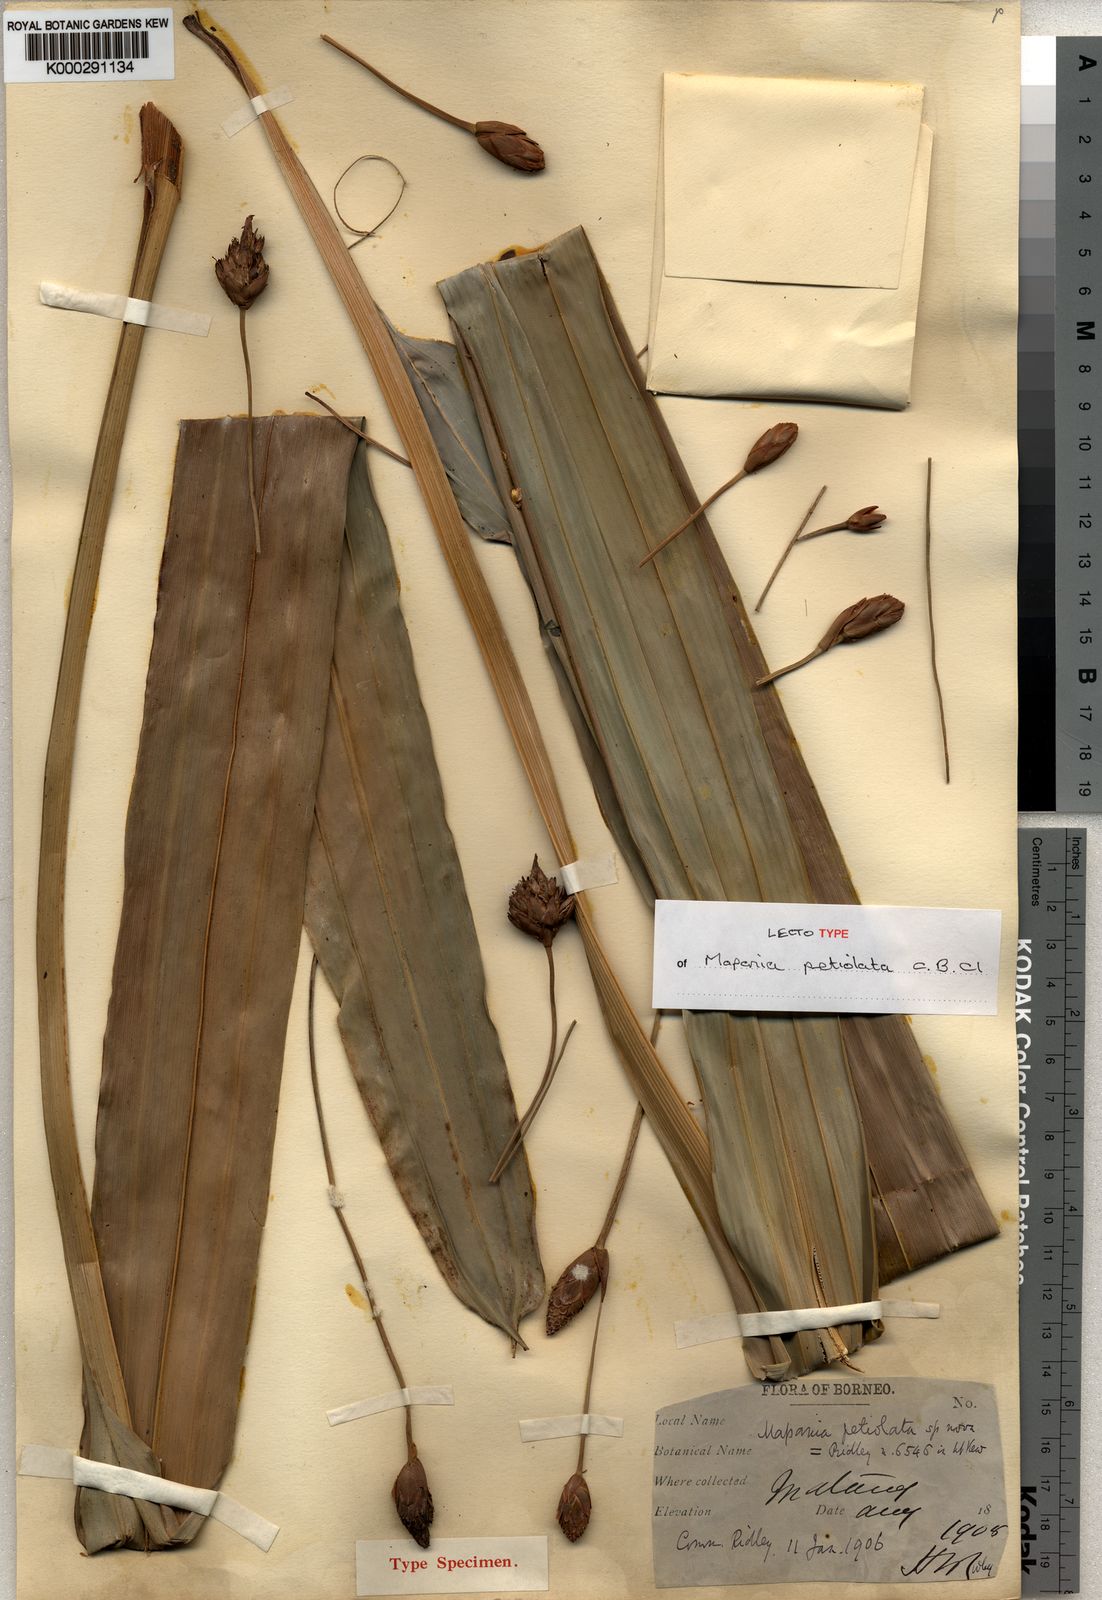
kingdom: Plantae
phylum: Tracheophyta
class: Liliopsida
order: Poales
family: Cyperaceae
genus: Mapania
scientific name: Mapania cuspidata
